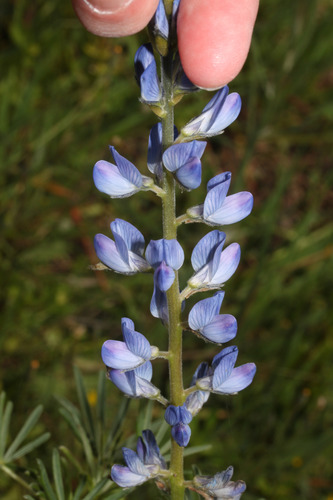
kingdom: Plantae
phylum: Tracheophyta
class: Magnoliopsida
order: Fabales
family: Fabaceae
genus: Lupinus
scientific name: Lupinus angustifolius
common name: Narrow-leaved lupin
